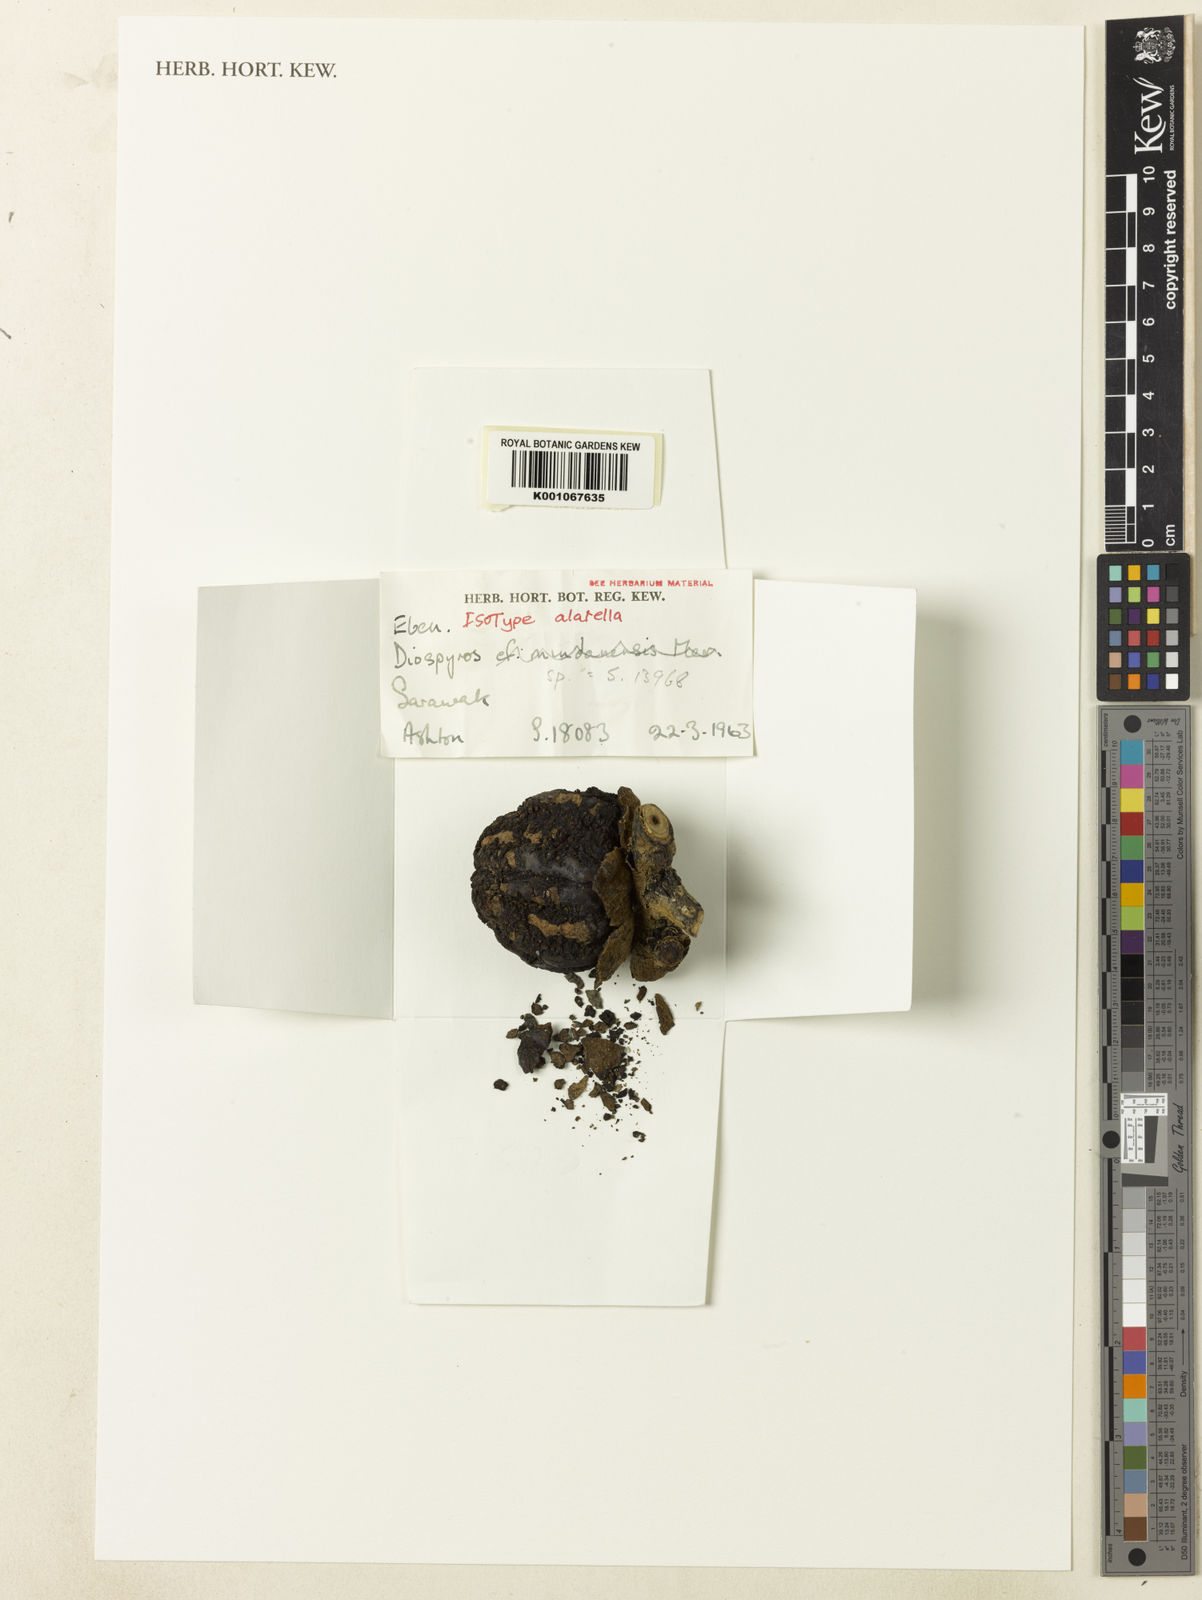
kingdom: Plantae
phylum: Tracheophyta
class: Magnoliopsida
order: Ericales
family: Ebenaceae
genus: Diospyros
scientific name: Diospyros alatella
